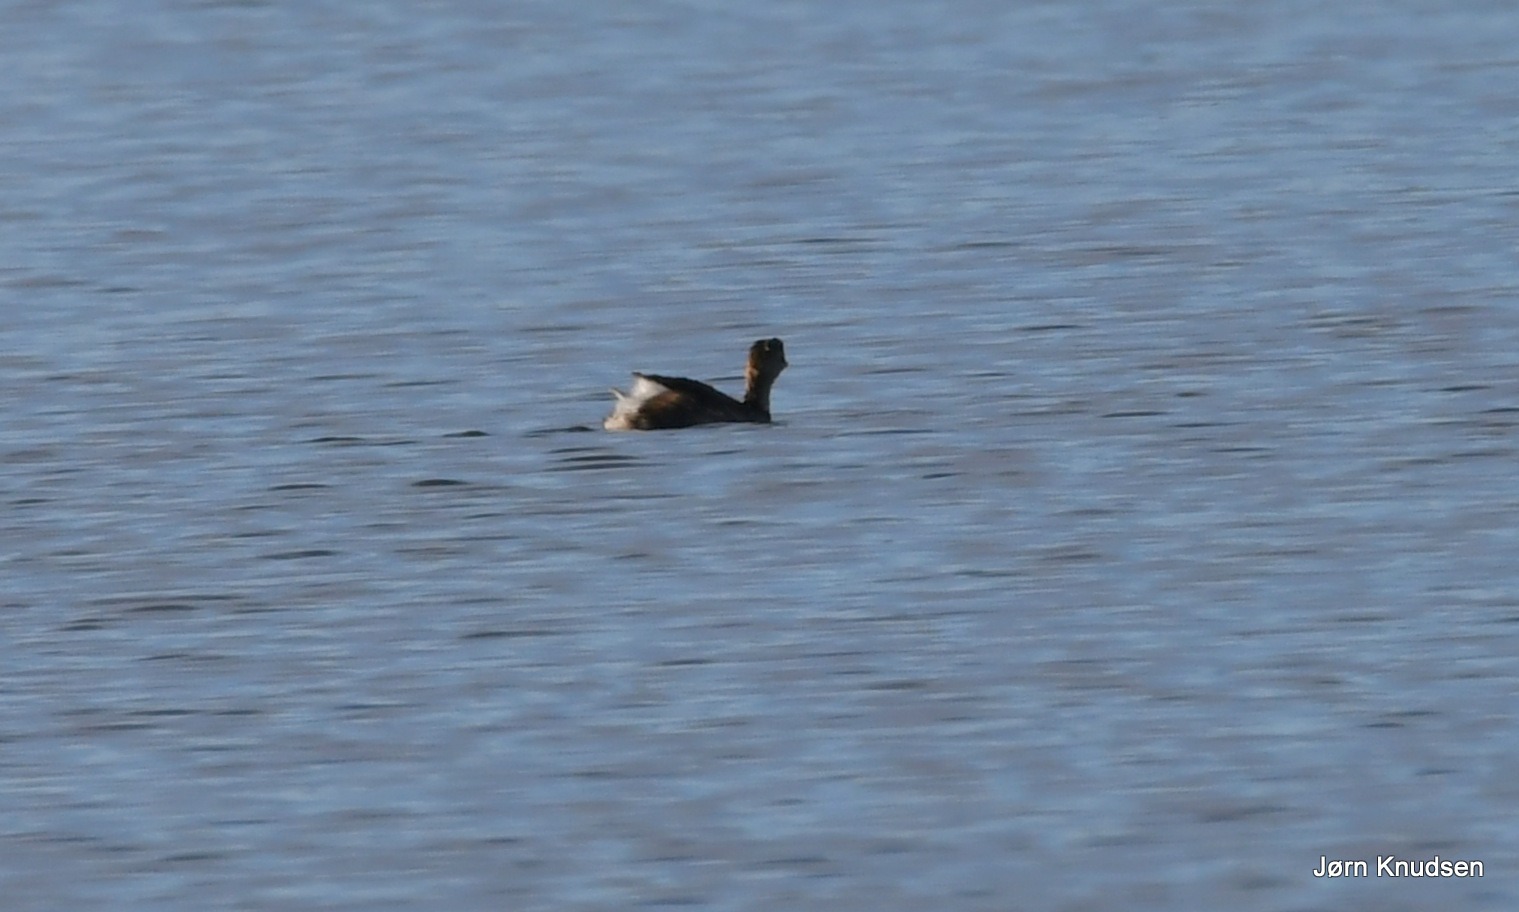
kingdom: Animalia
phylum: Chordata
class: Aves
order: Podicipediformes
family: Podicipedidae
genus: Tachybaptus
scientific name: Tachybaptus ruficollis
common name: Lille lappedykker
